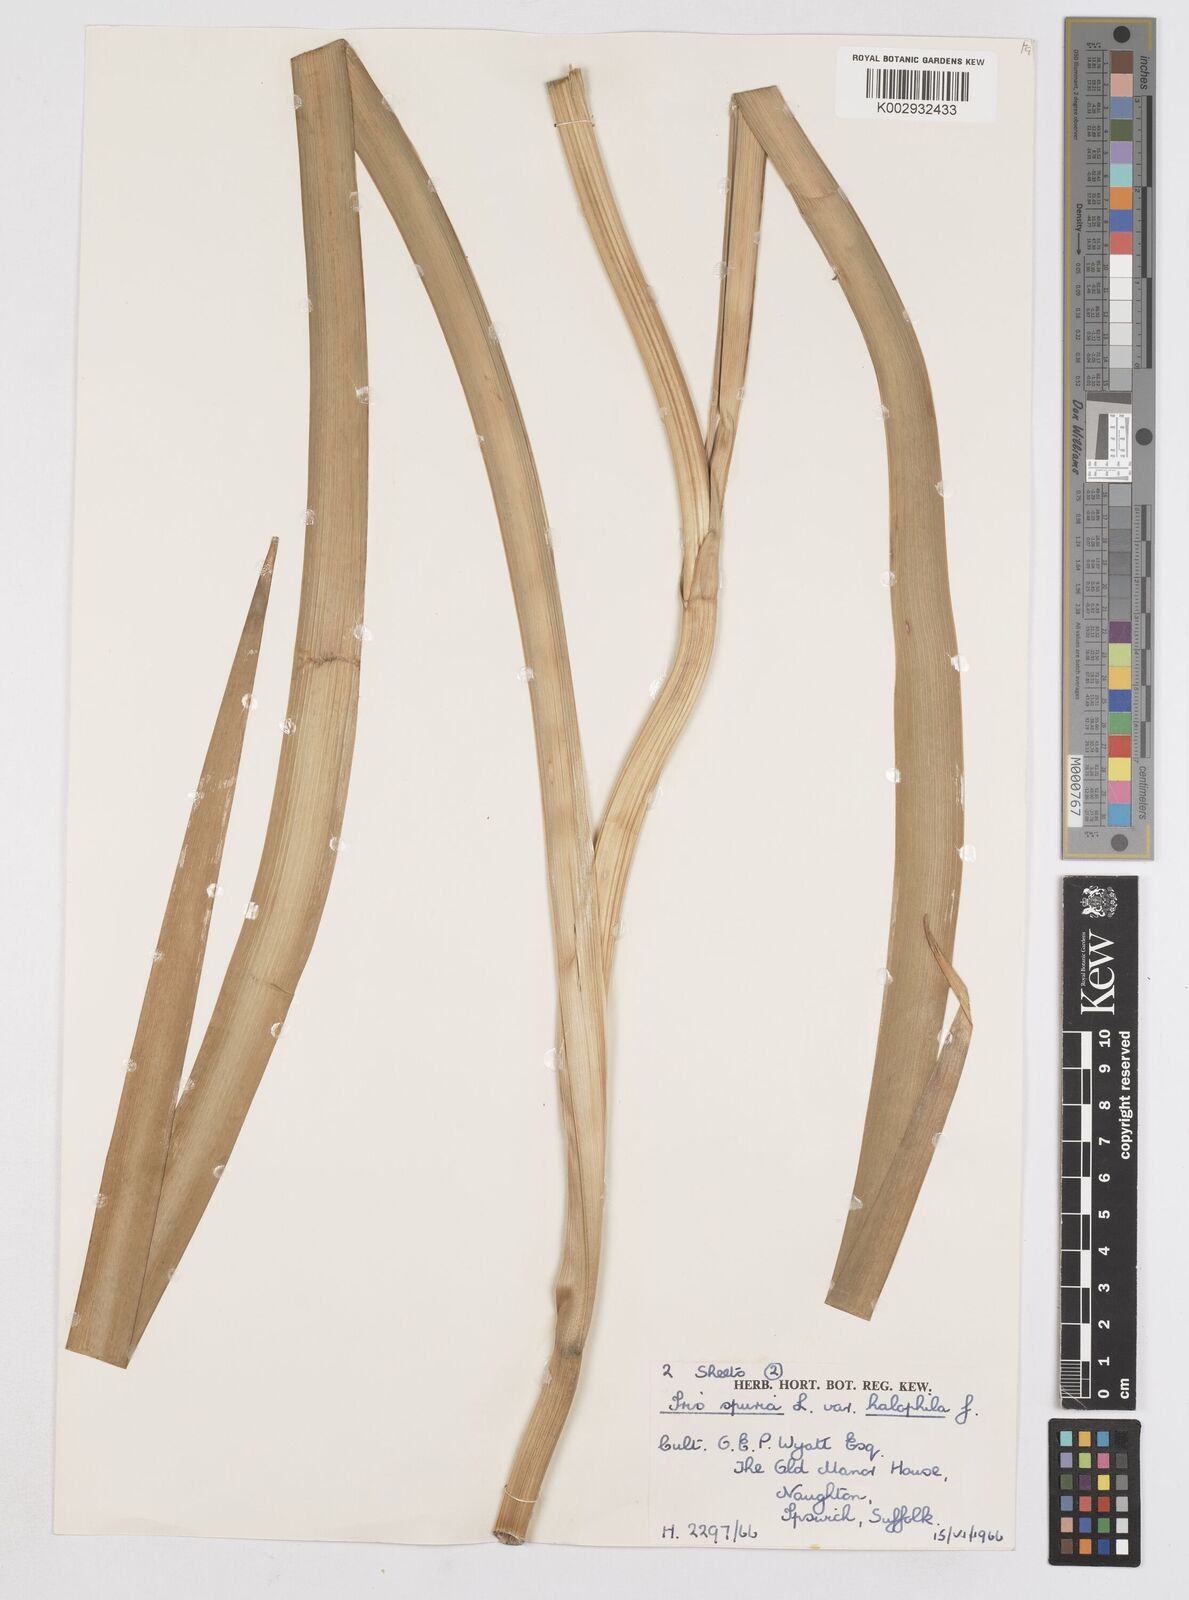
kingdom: Plantae
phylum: Tracheophyta
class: Liliopsida
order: Asparagales
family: Iridaceae
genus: Iris
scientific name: Iris halophila
